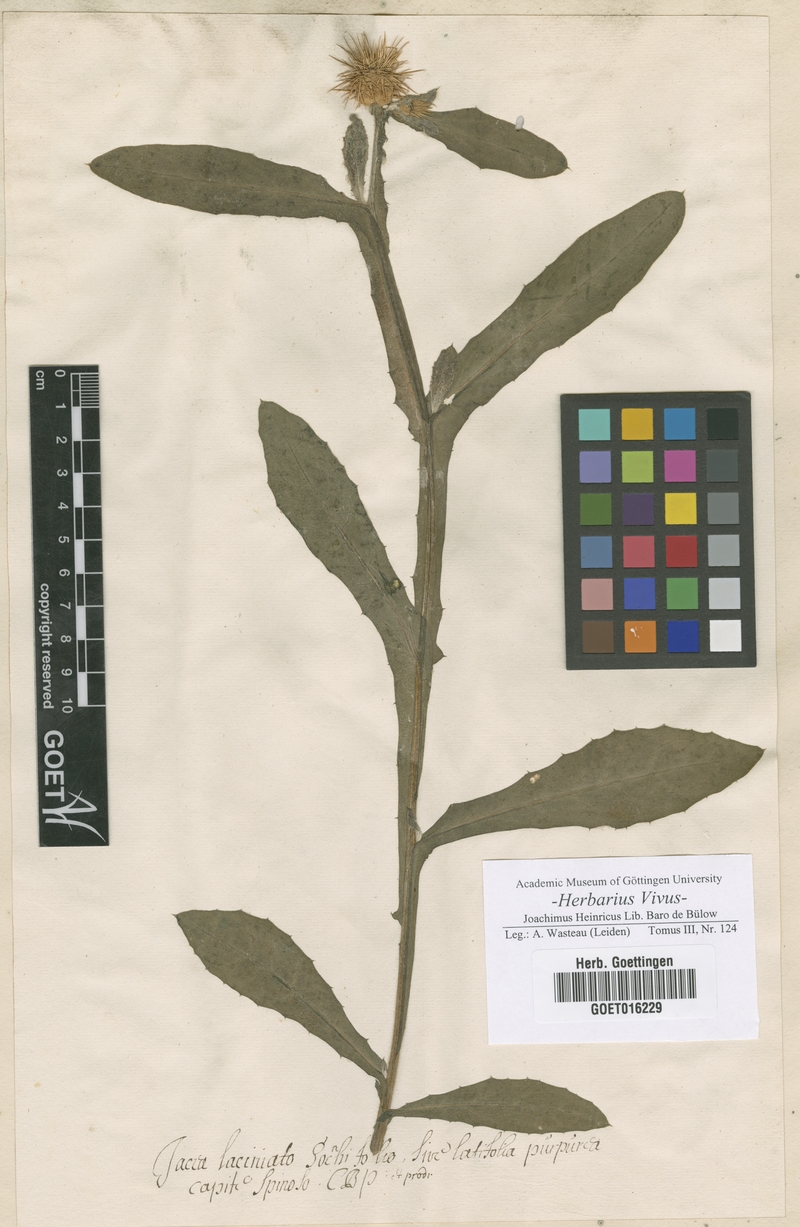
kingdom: Plantae
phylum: Tracheophyta
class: Magnoliopsida
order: Asterales
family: Asteraceae
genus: Centaurea
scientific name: Centaurea seridis
